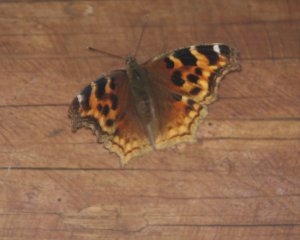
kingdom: Animalia
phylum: Arthropoda
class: Insecta
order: Lepidoptera
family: Nymphalidae
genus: Polygonia
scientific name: Polygonia vaualbum
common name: Compton Tortoiseshell
